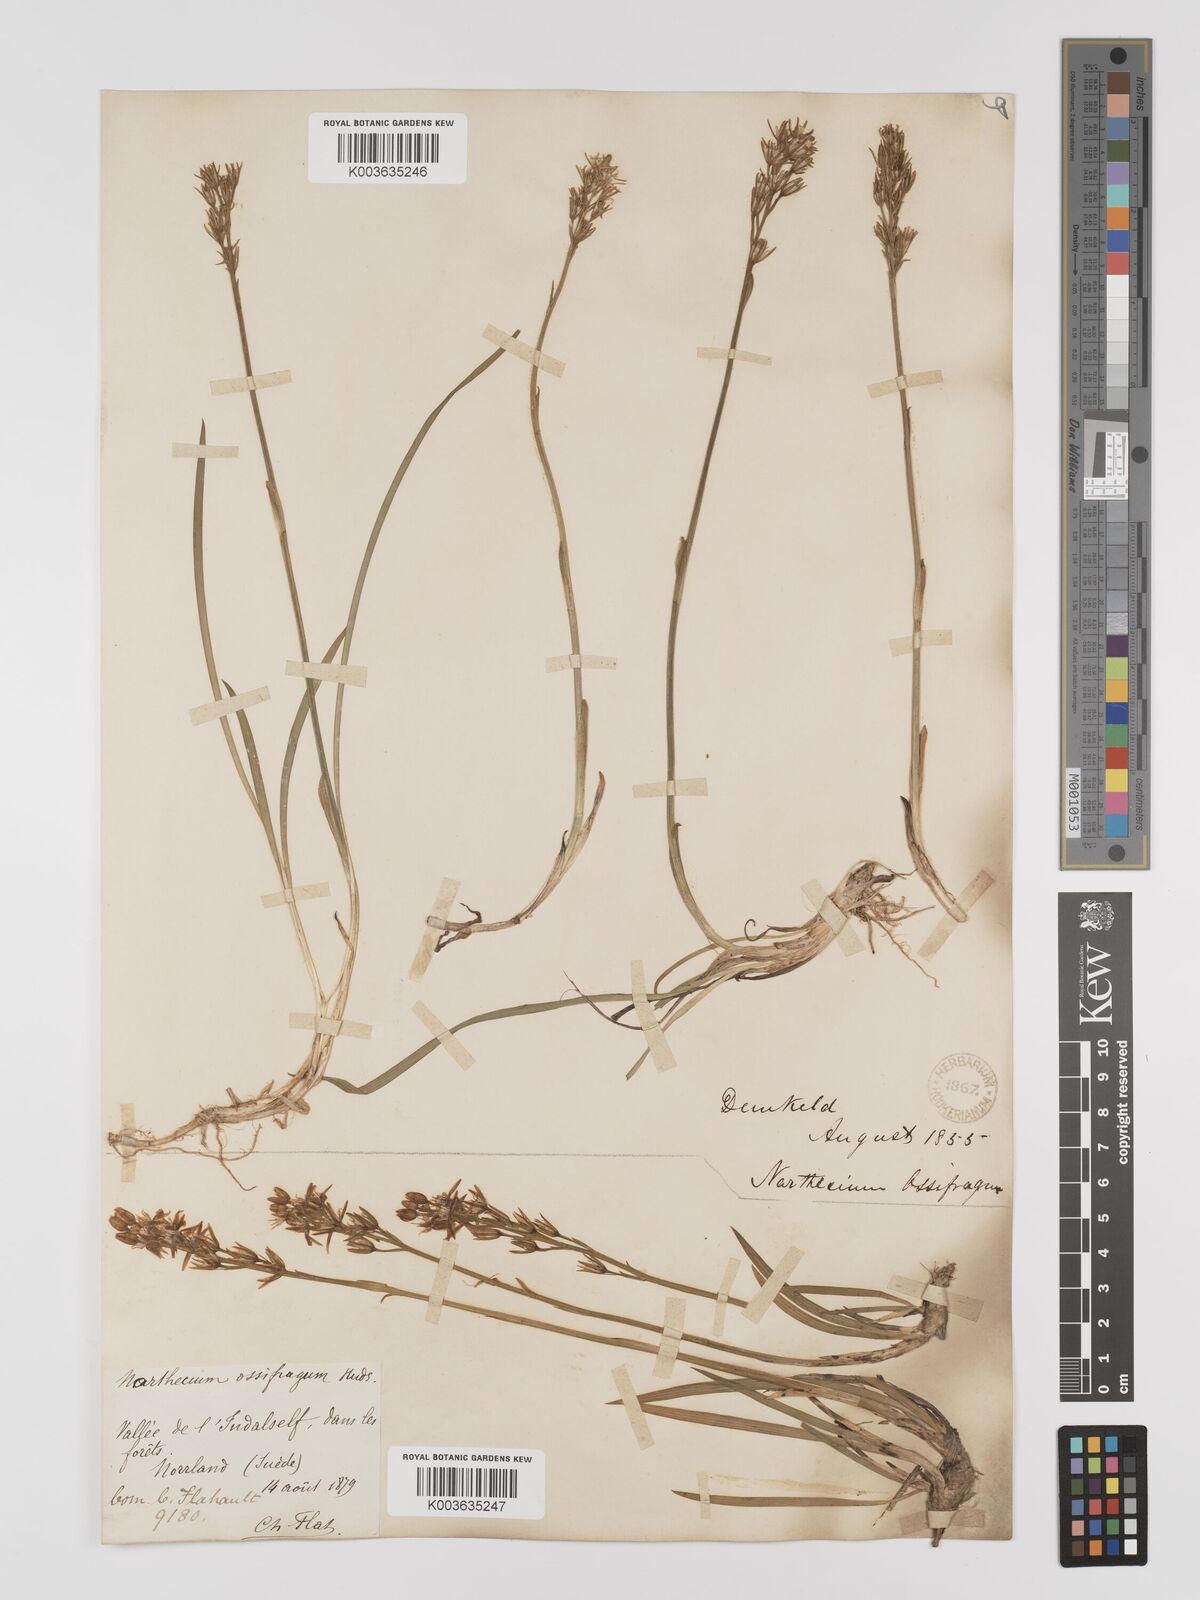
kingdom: Plantae
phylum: Tracheophyta
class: Liliopsida
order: Dioscoreales
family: Nartheciaceae
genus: Narthecium
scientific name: Narthecium
